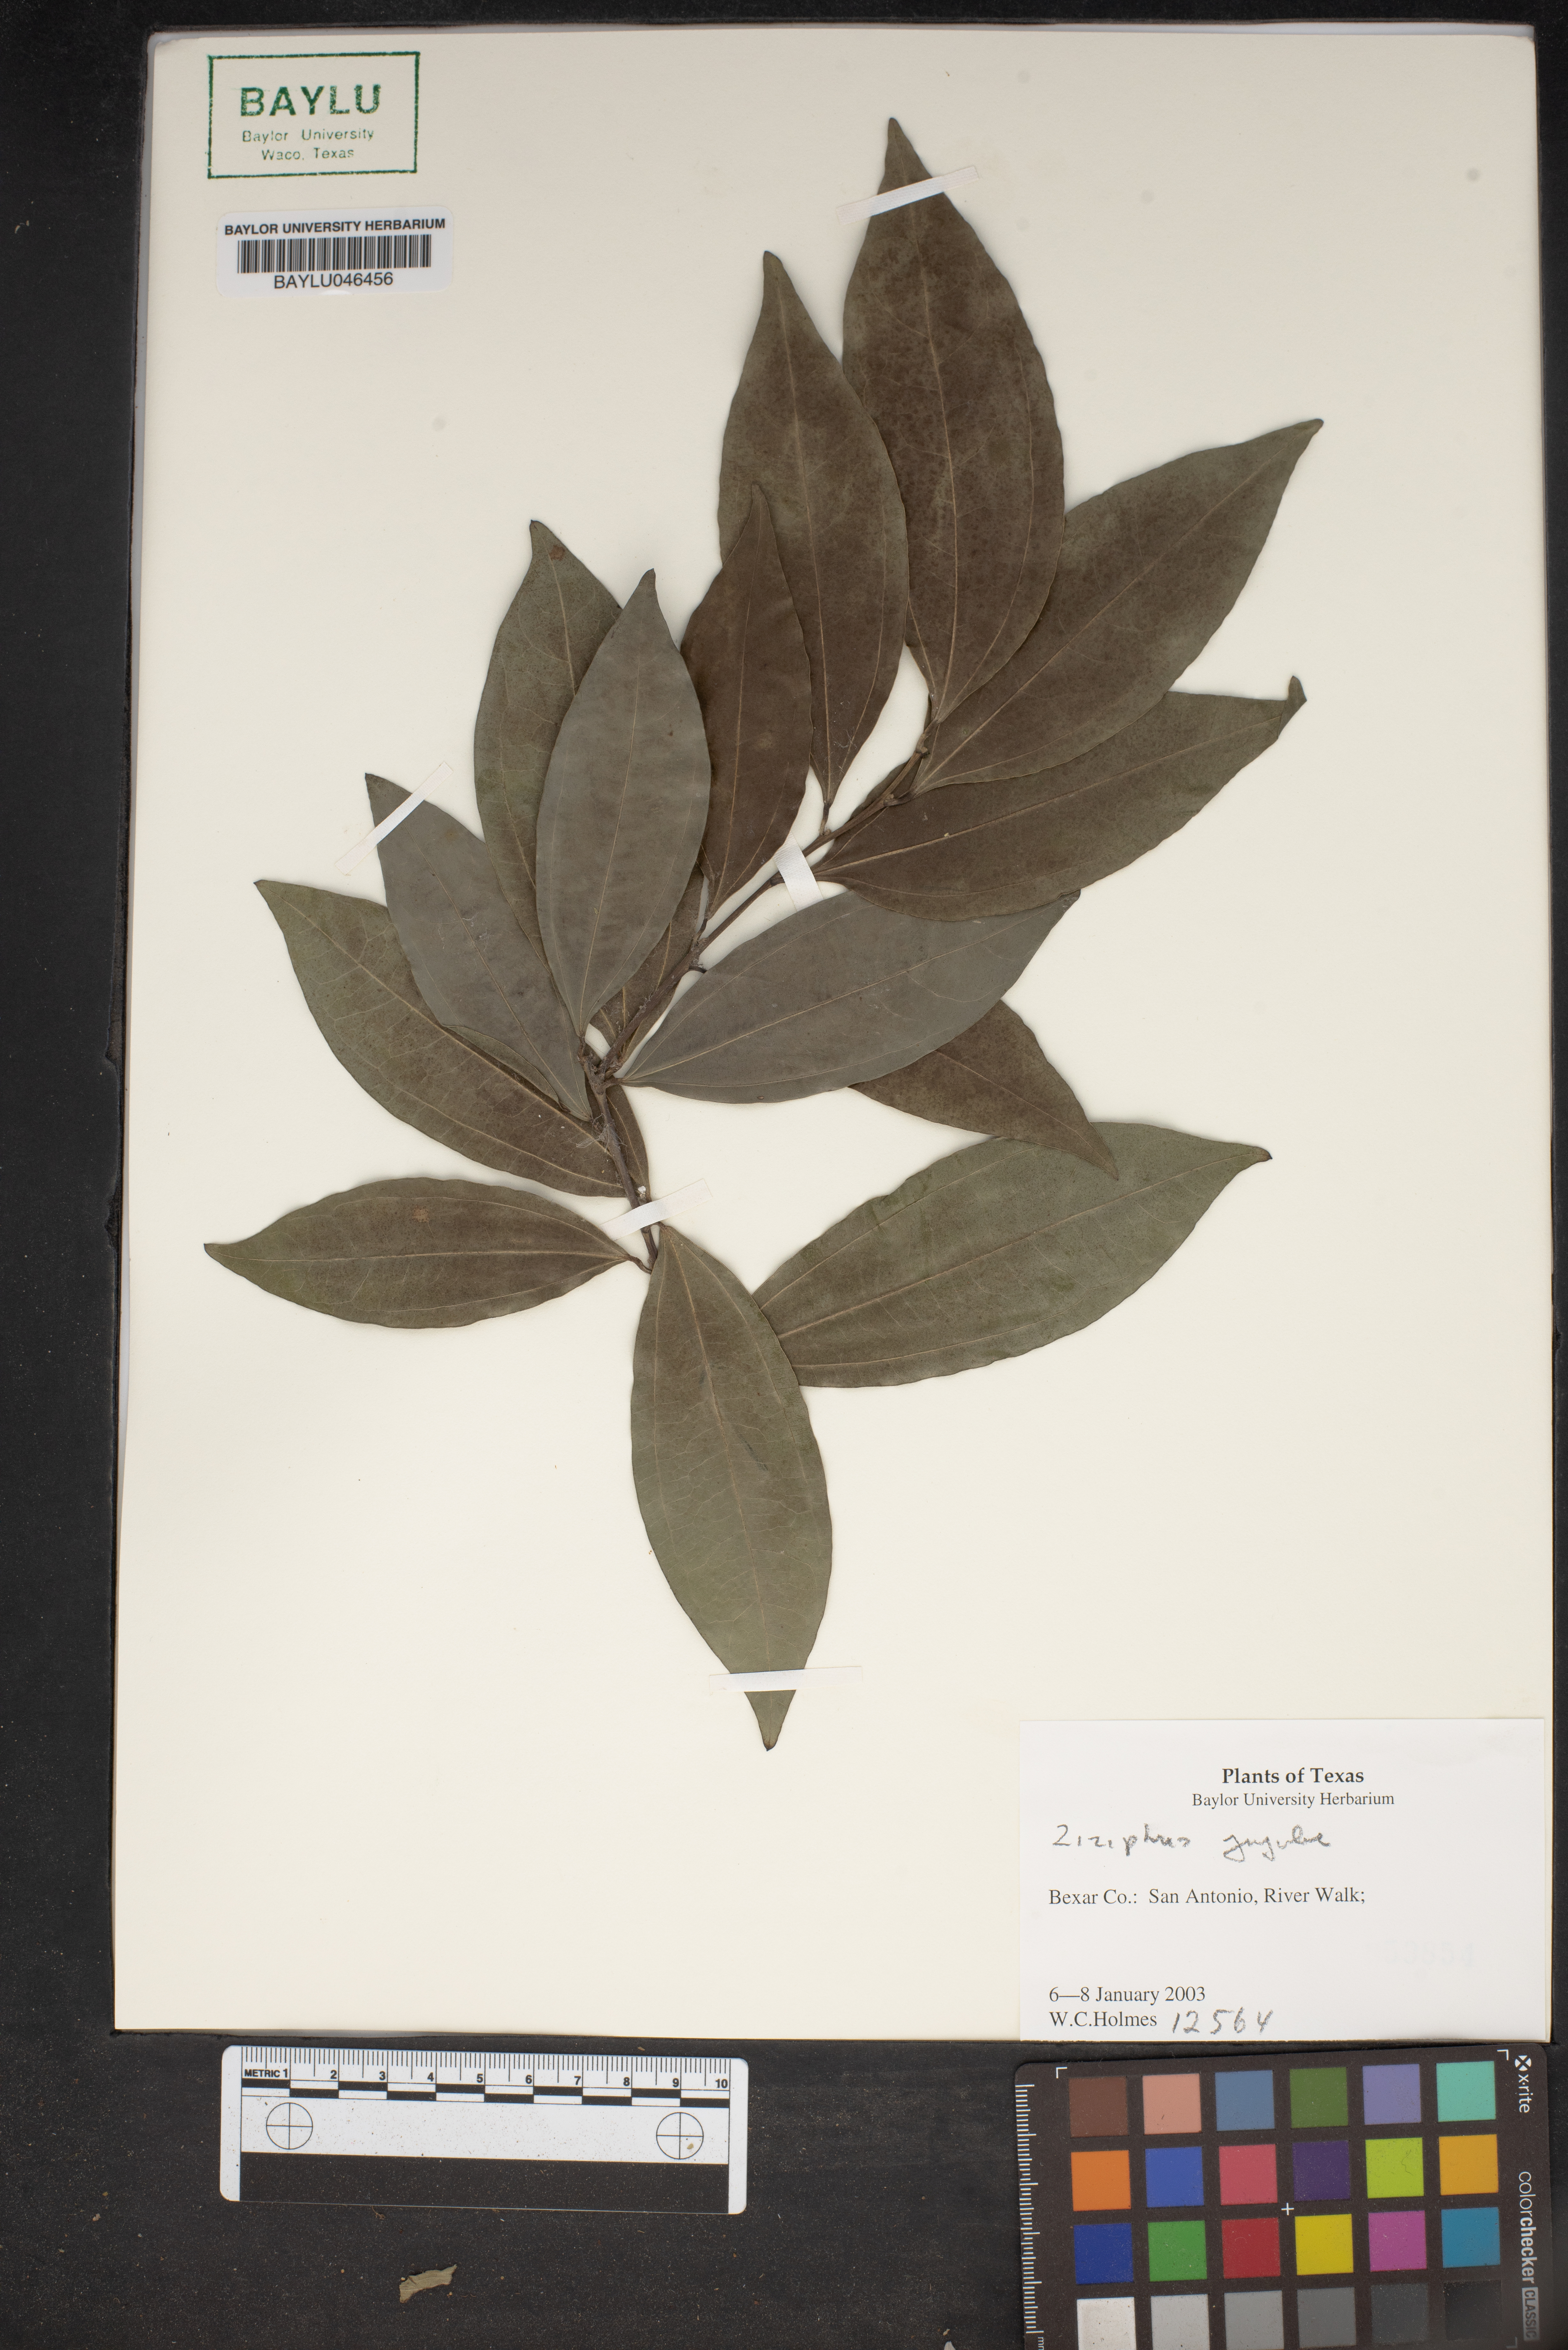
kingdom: Plantae
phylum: Tracheophyta
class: Magnoliopsida
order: Rosales
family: Rhamnaceae
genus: Ziziphus
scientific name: Ziziphus jujuba
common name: Jujube red date
